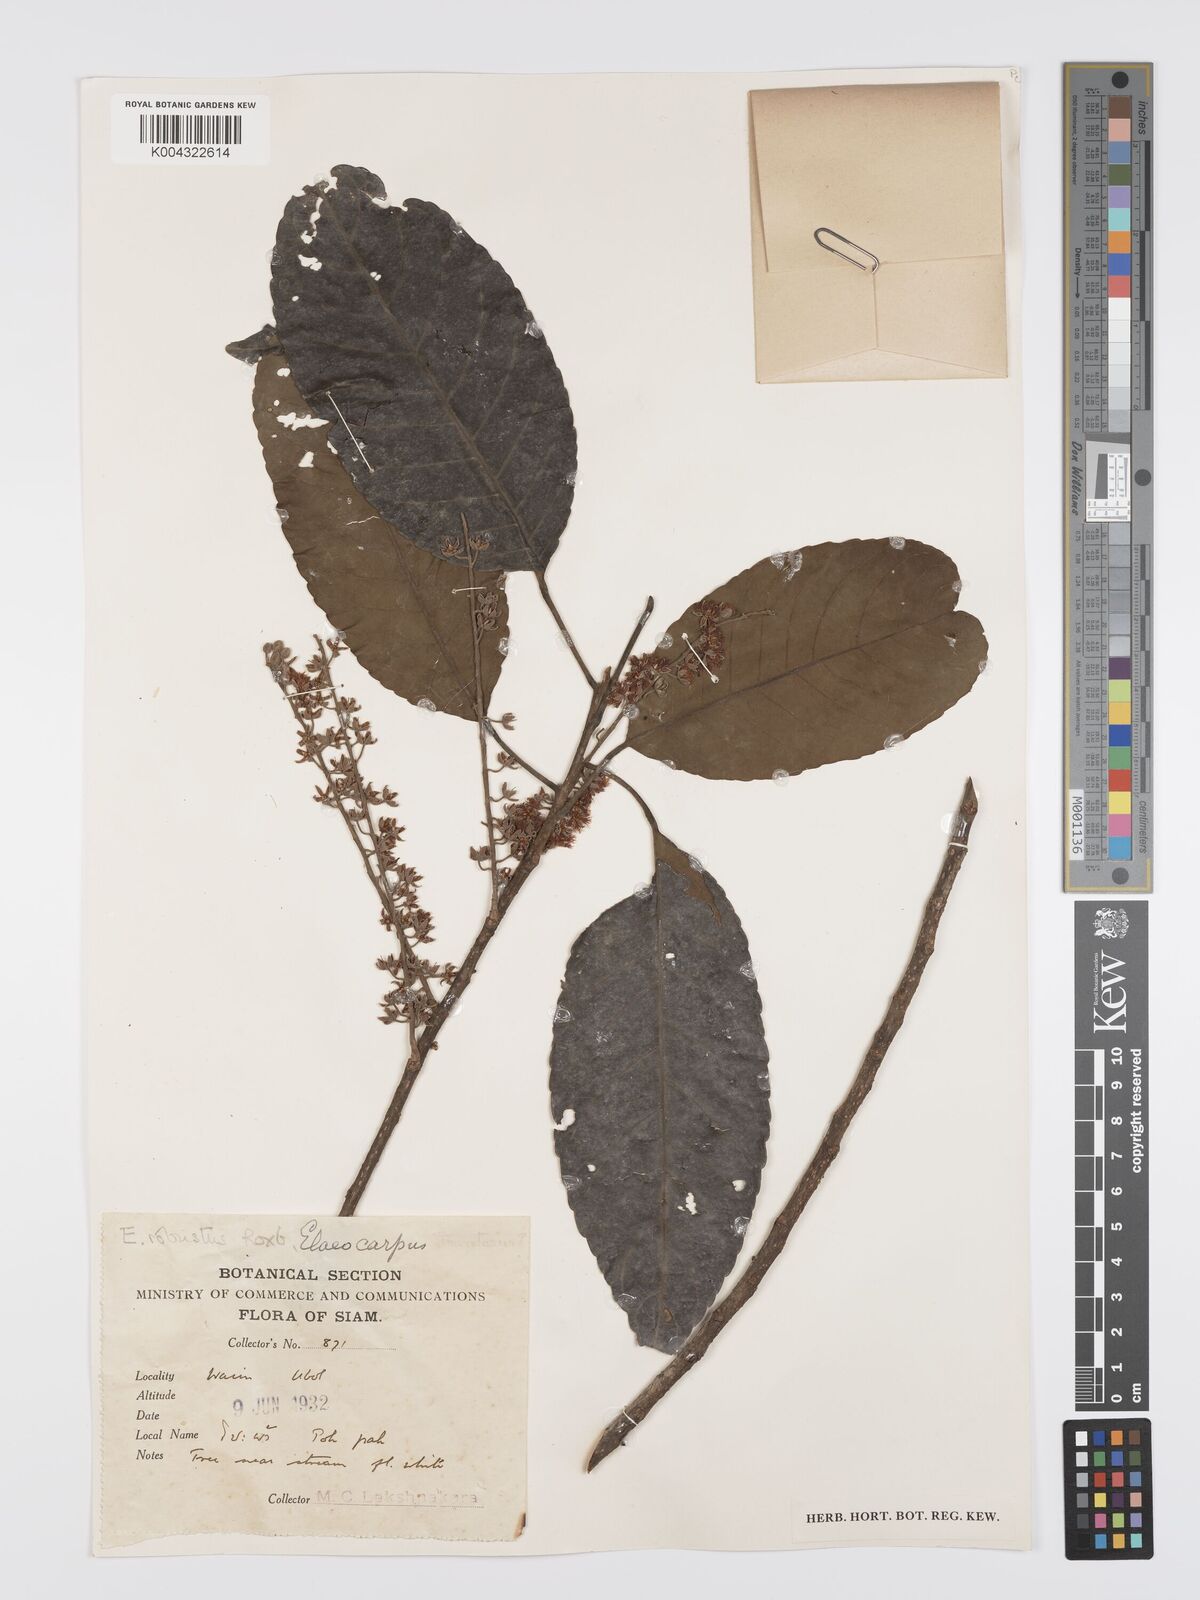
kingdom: Plantae
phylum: Tracheophyta
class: Magnoliopsida
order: Oxalidales
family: Elaeocarpaceae
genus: Elaeocarpus
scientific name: Elaeocarpus robustus
